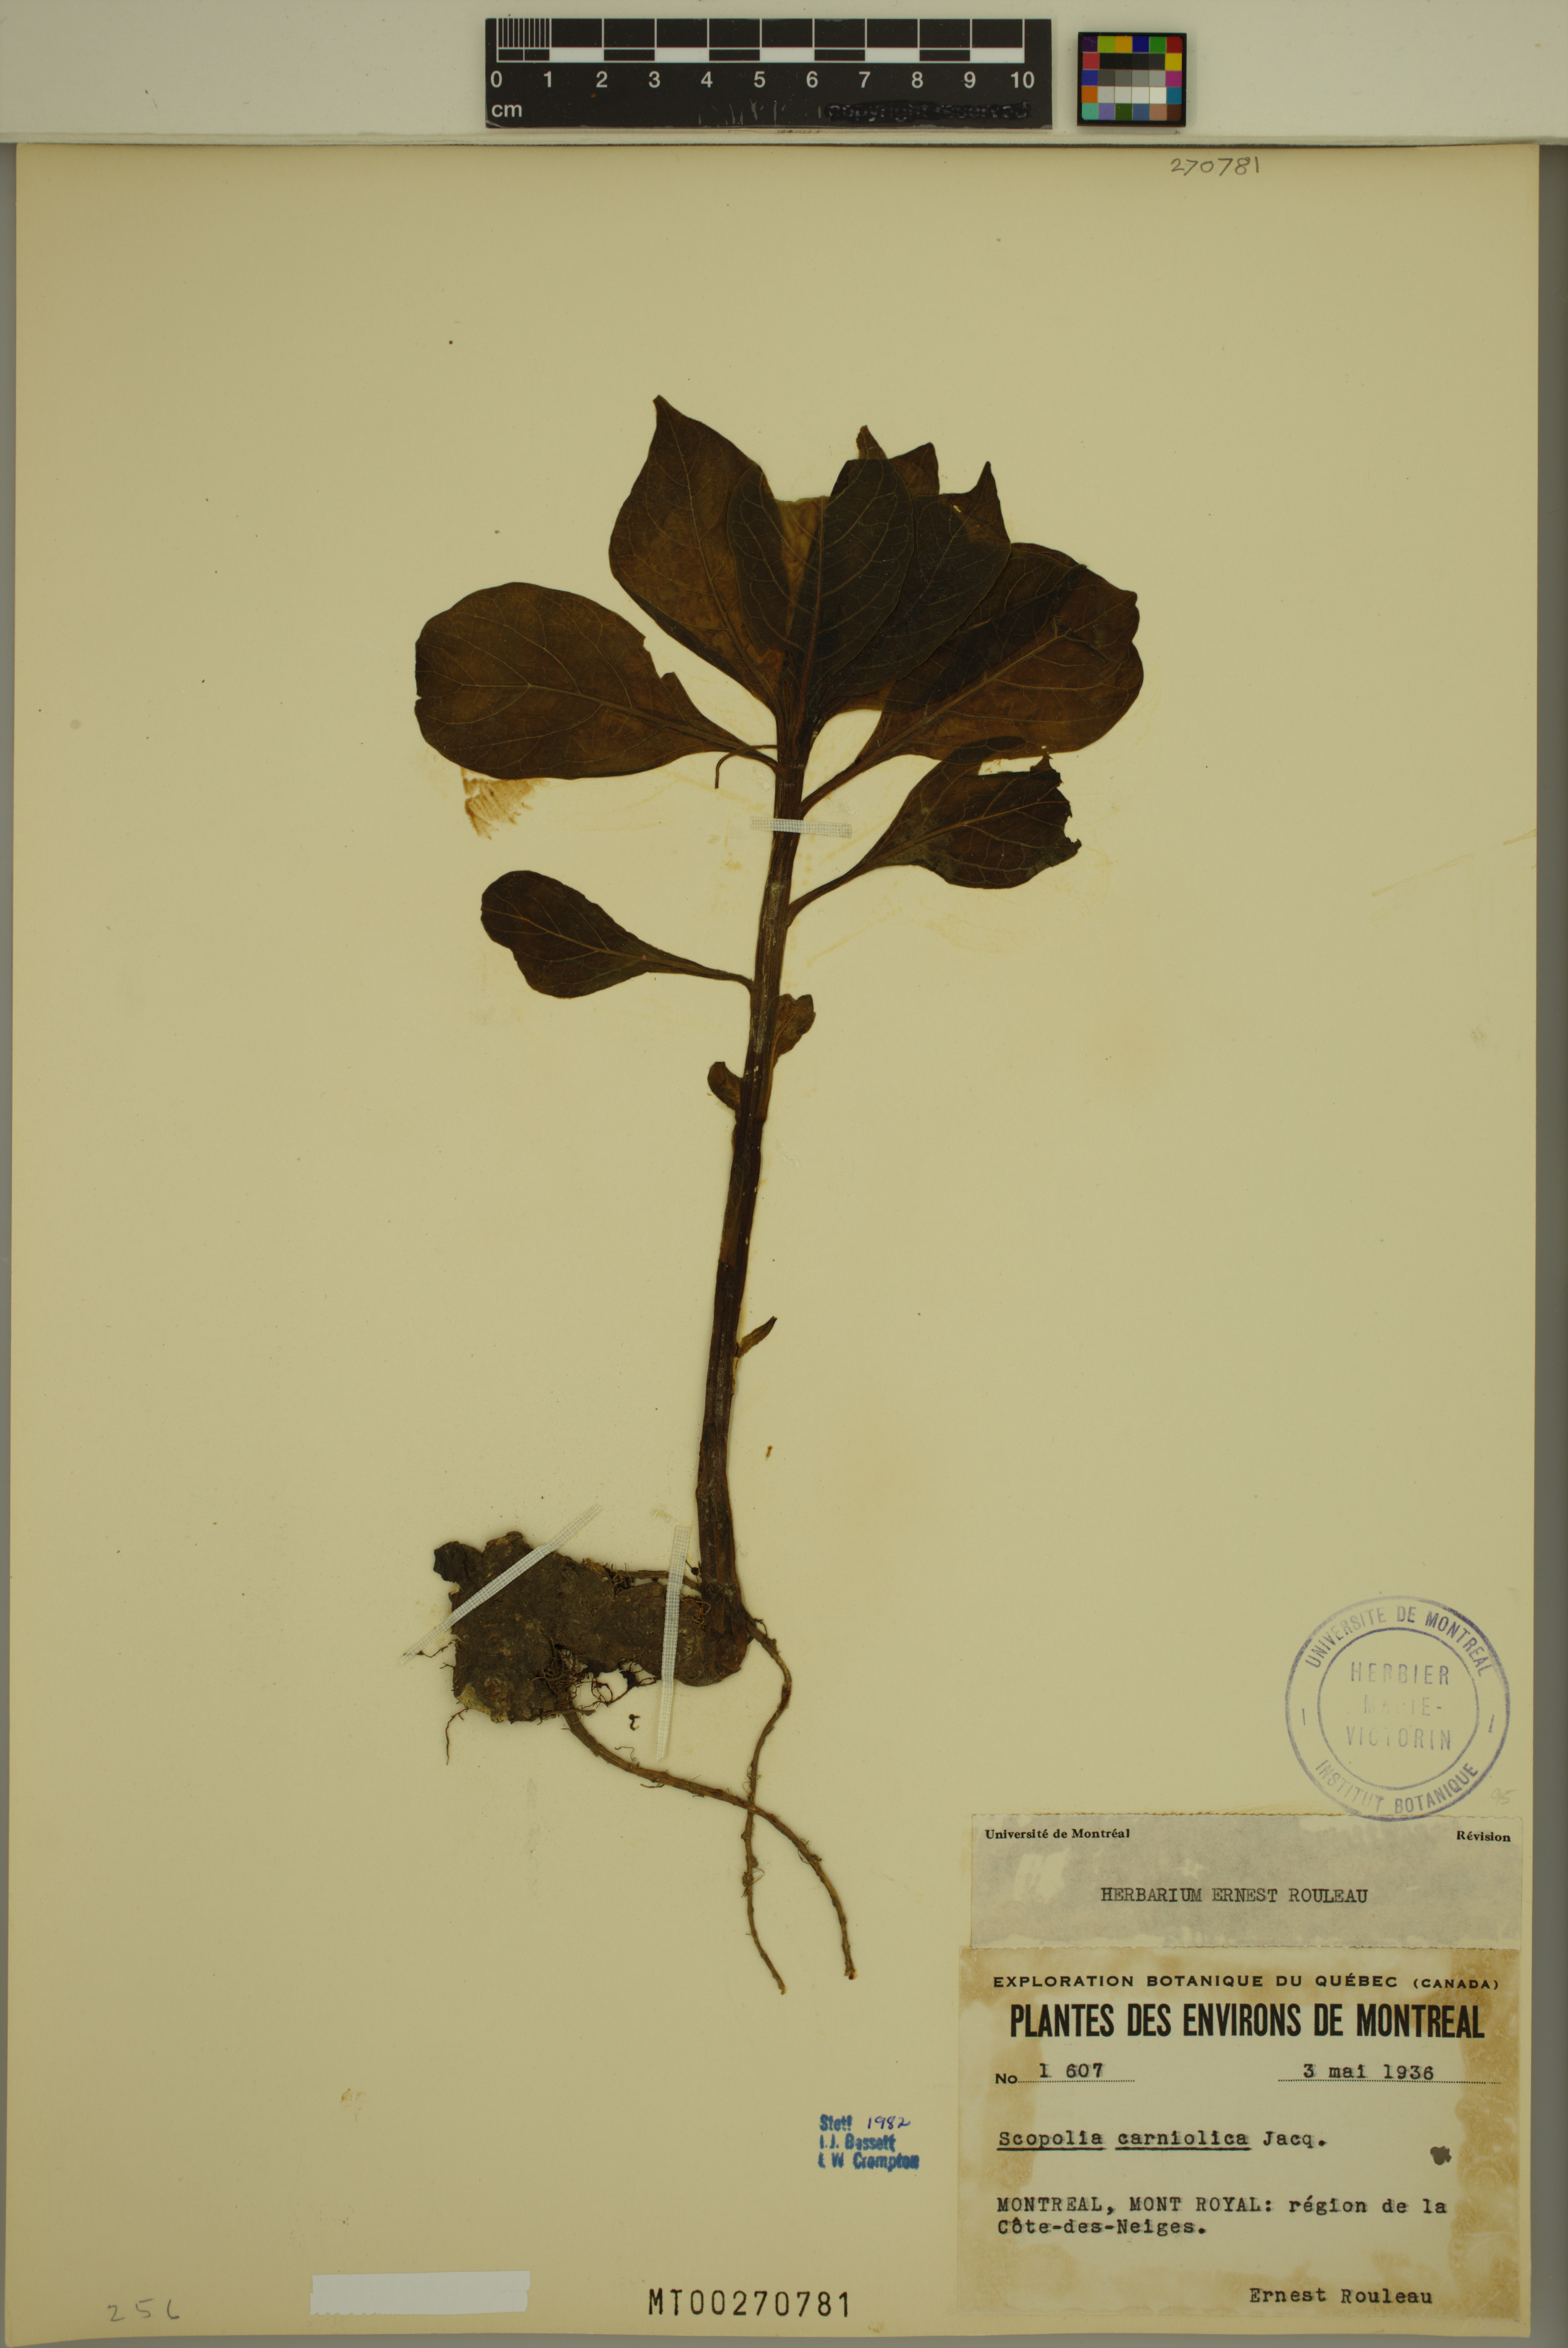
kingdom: Plantae
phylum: Tracheophyta
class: Magnoliopsida
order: Solanales
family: Solanaceae
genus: Scopolia
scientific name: Scopolia carniolica
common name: Scopolia
